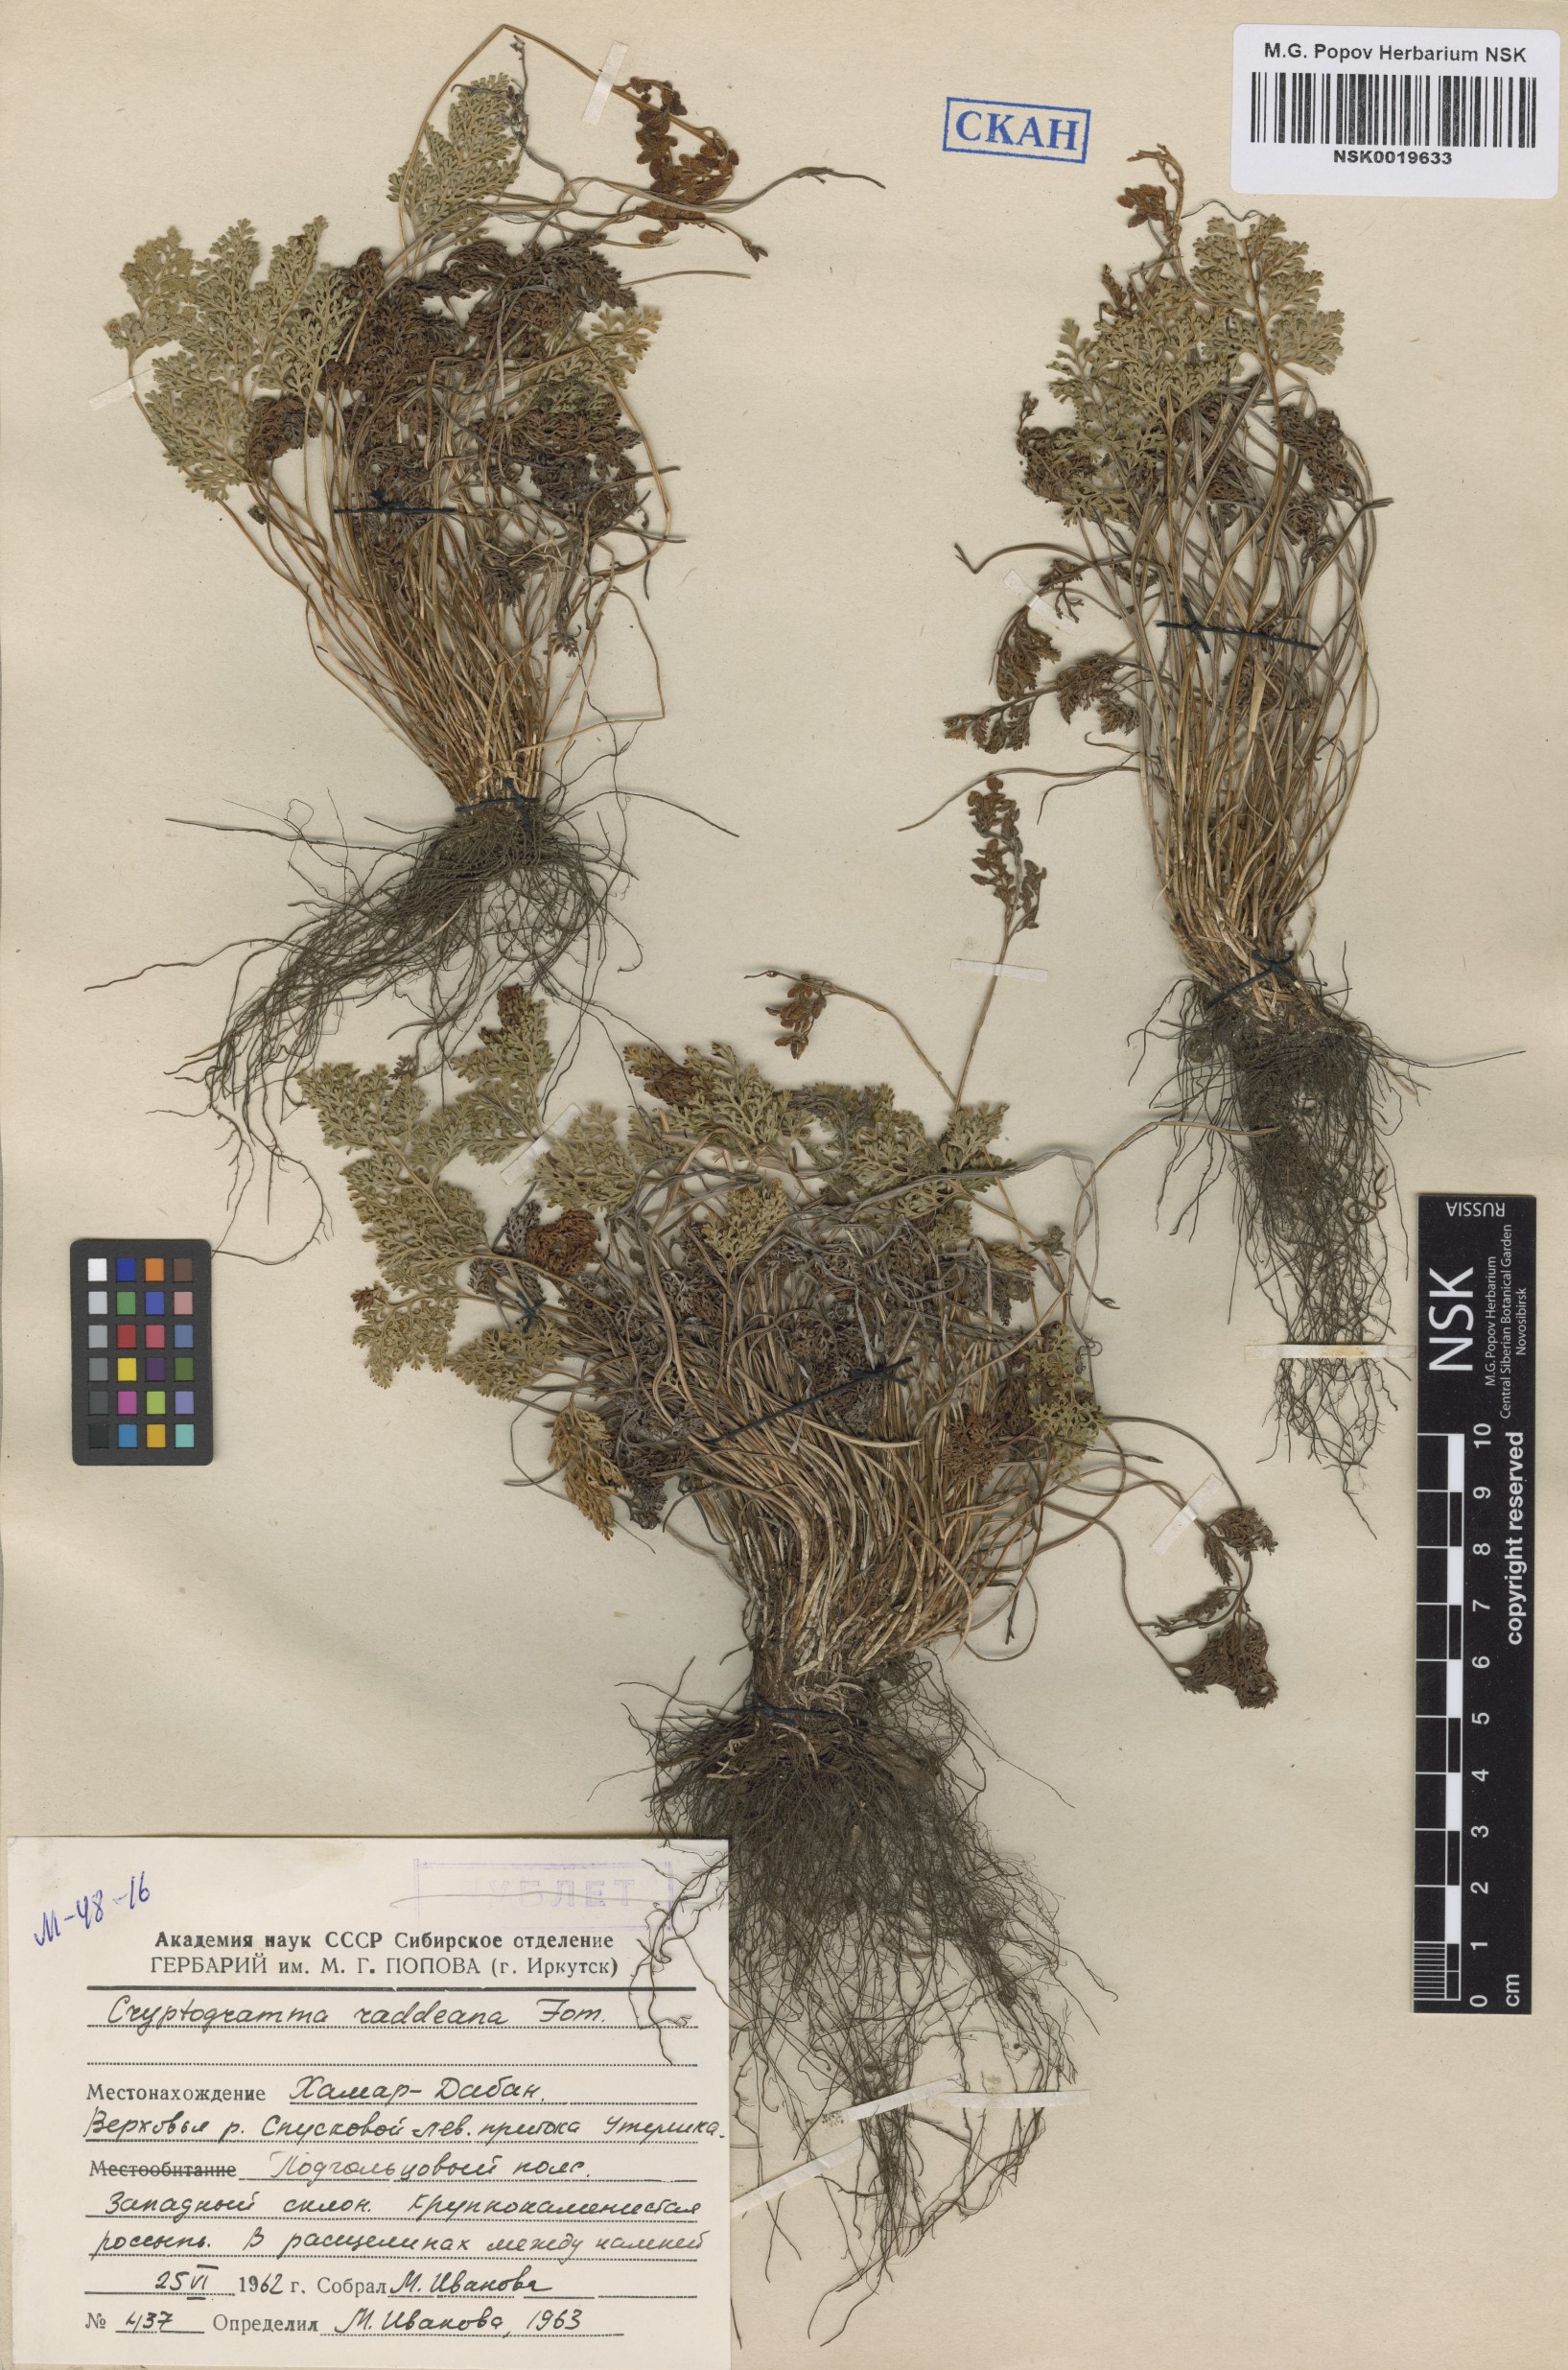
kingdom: Plantae
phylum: Tracheophyta
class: Polypodiopsida
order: Polypodiales
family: Pteridaceae
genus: Cryptogramma
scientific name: Cryptogramma brunoniana
